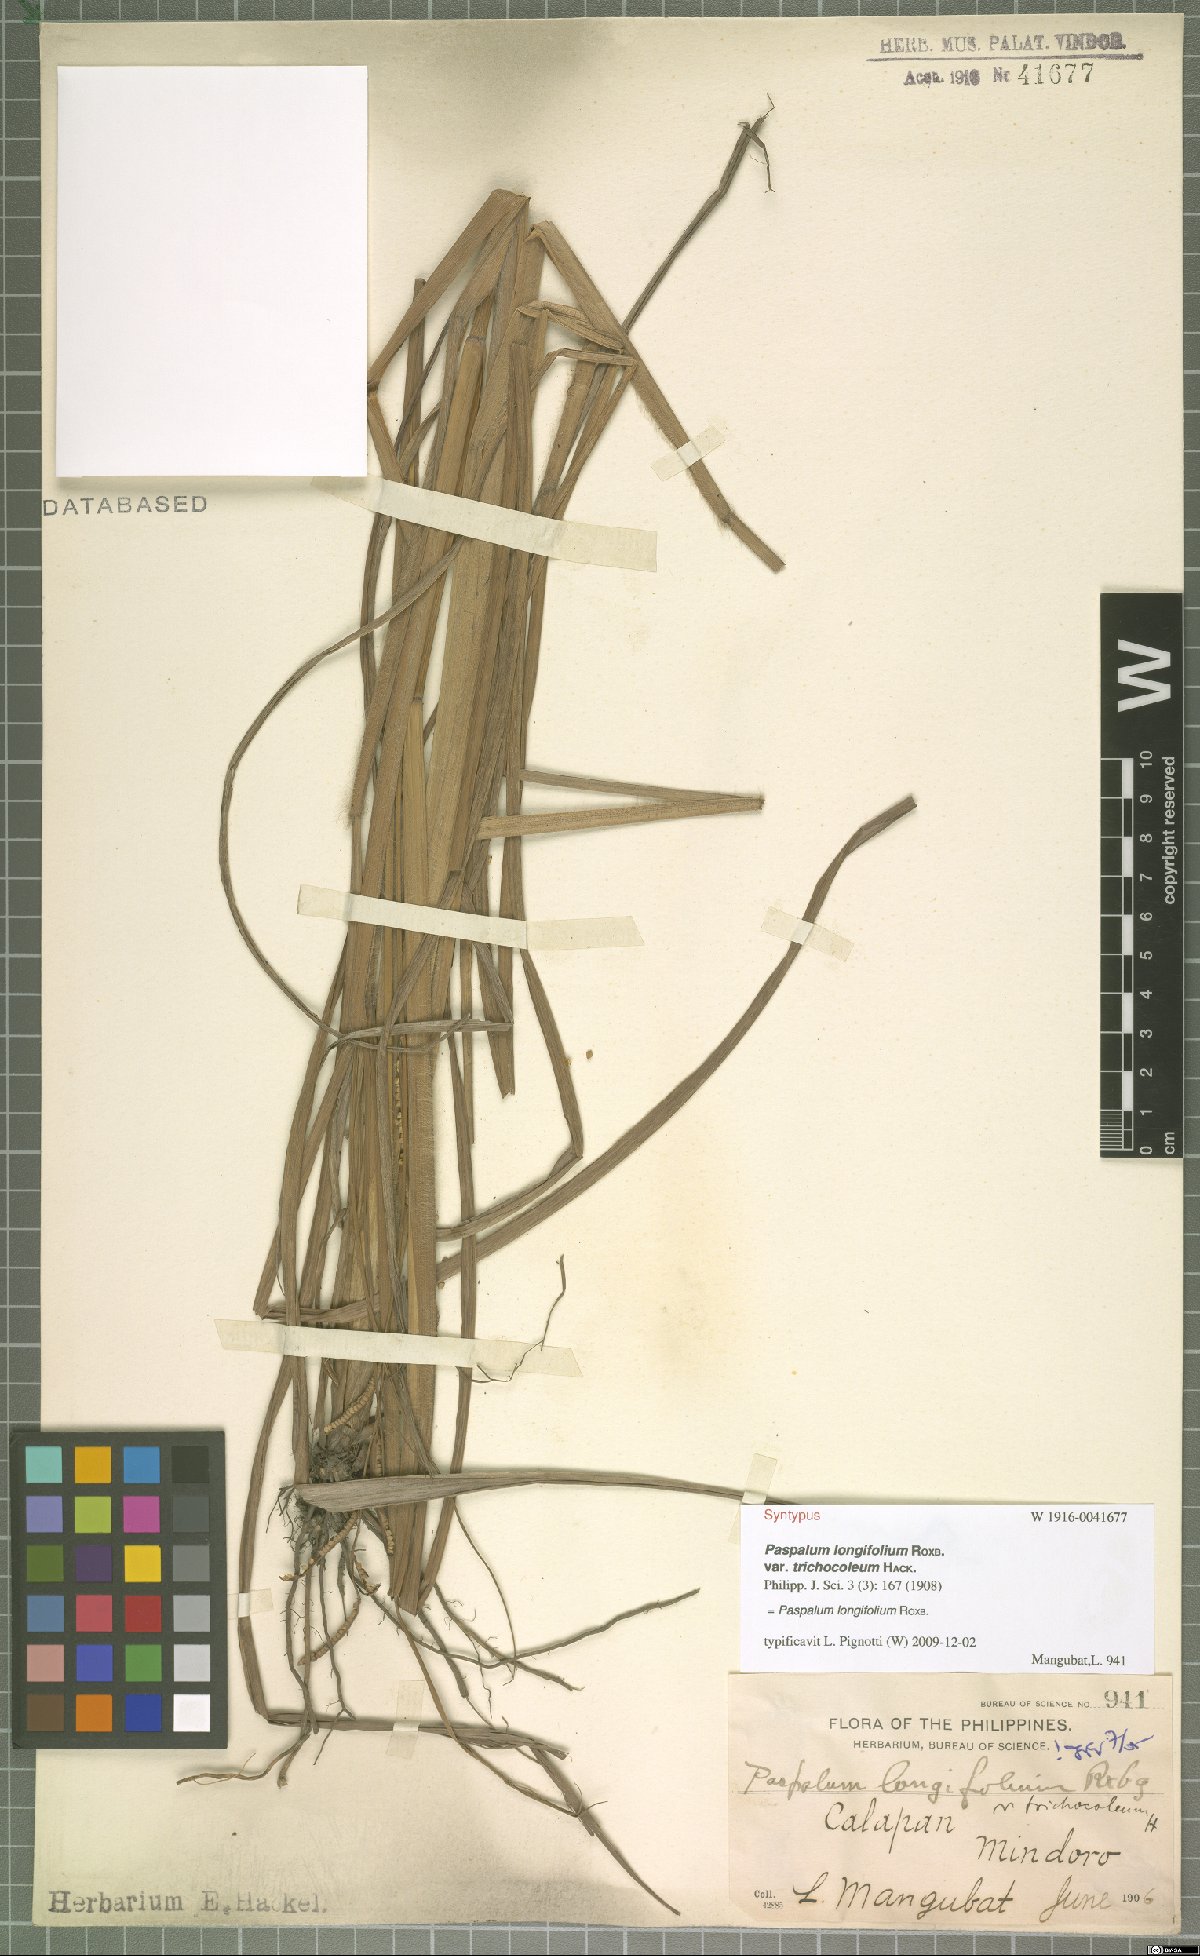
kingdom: Plantae
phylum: Tracheophyta
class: Liliopsida
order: Poales
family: Poaceae
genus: Paspalum
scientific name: Paspalum sumatrense
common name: Long-leaved paspalum
